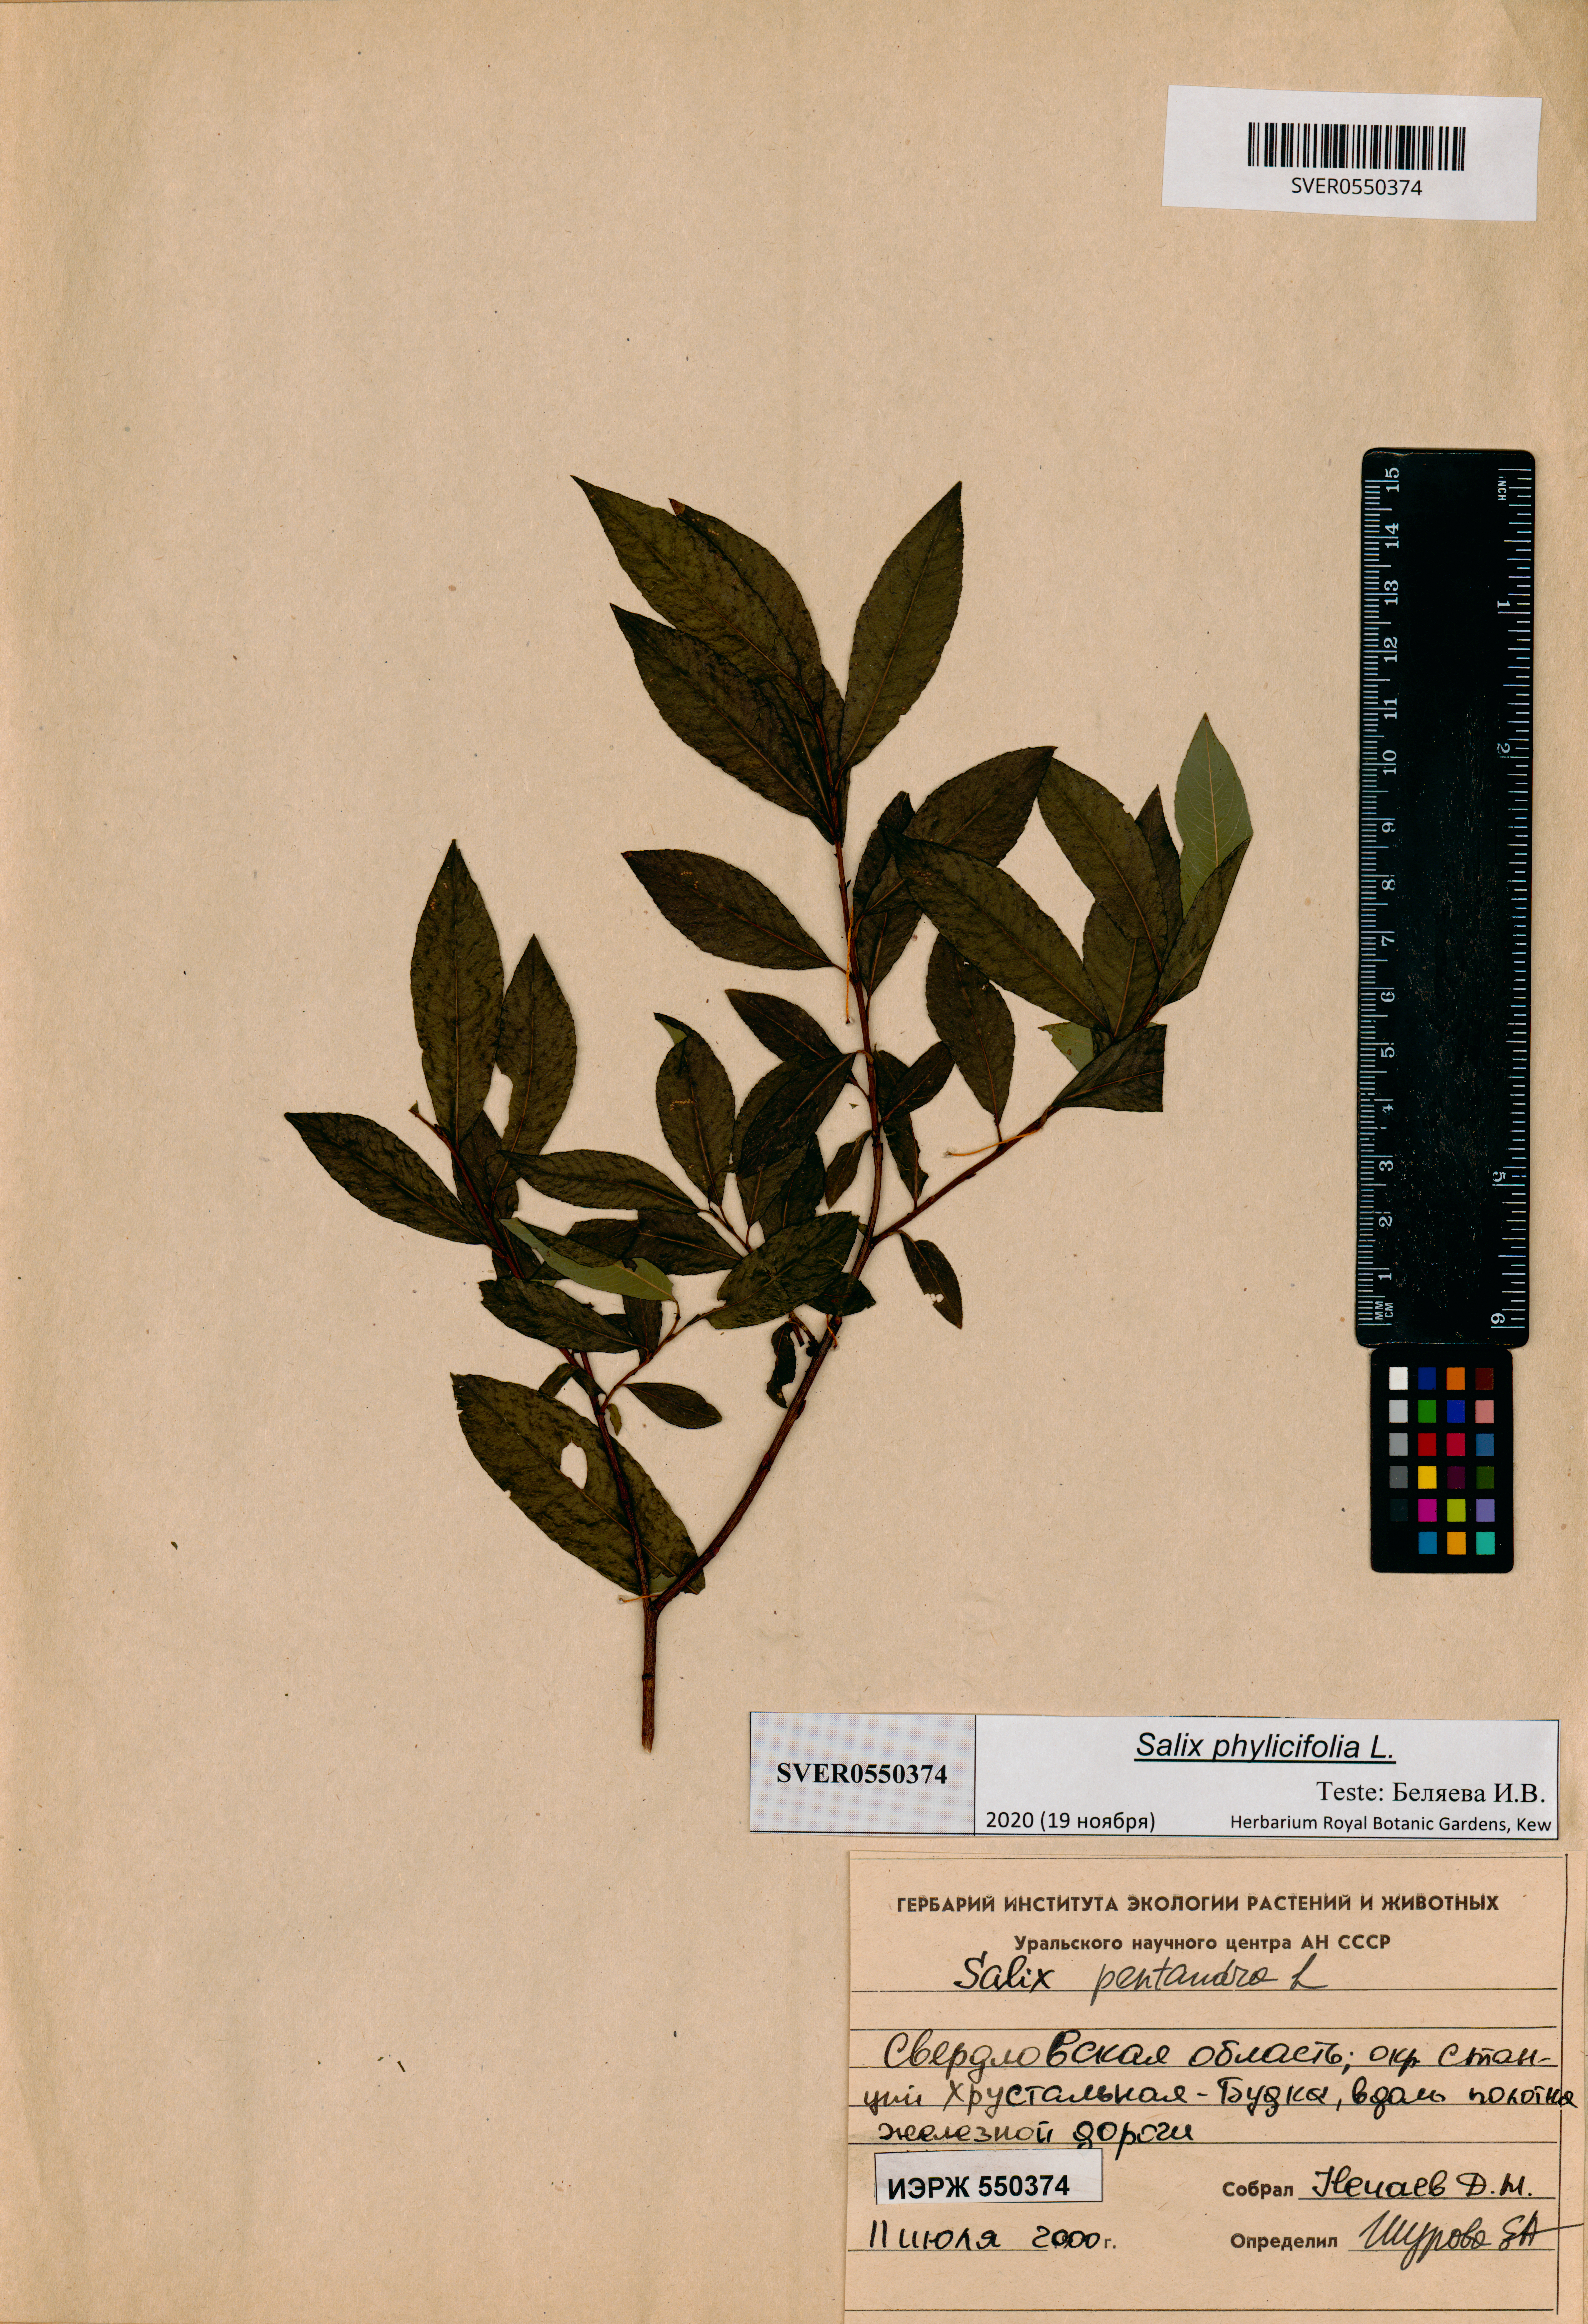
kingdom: Plantae
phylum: Tracheophyta
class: Magnoliopsida
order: Malpighiales
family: Salicaceae
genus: Salix
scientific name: Salix phylicifolia
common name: Tea-leaved willow
